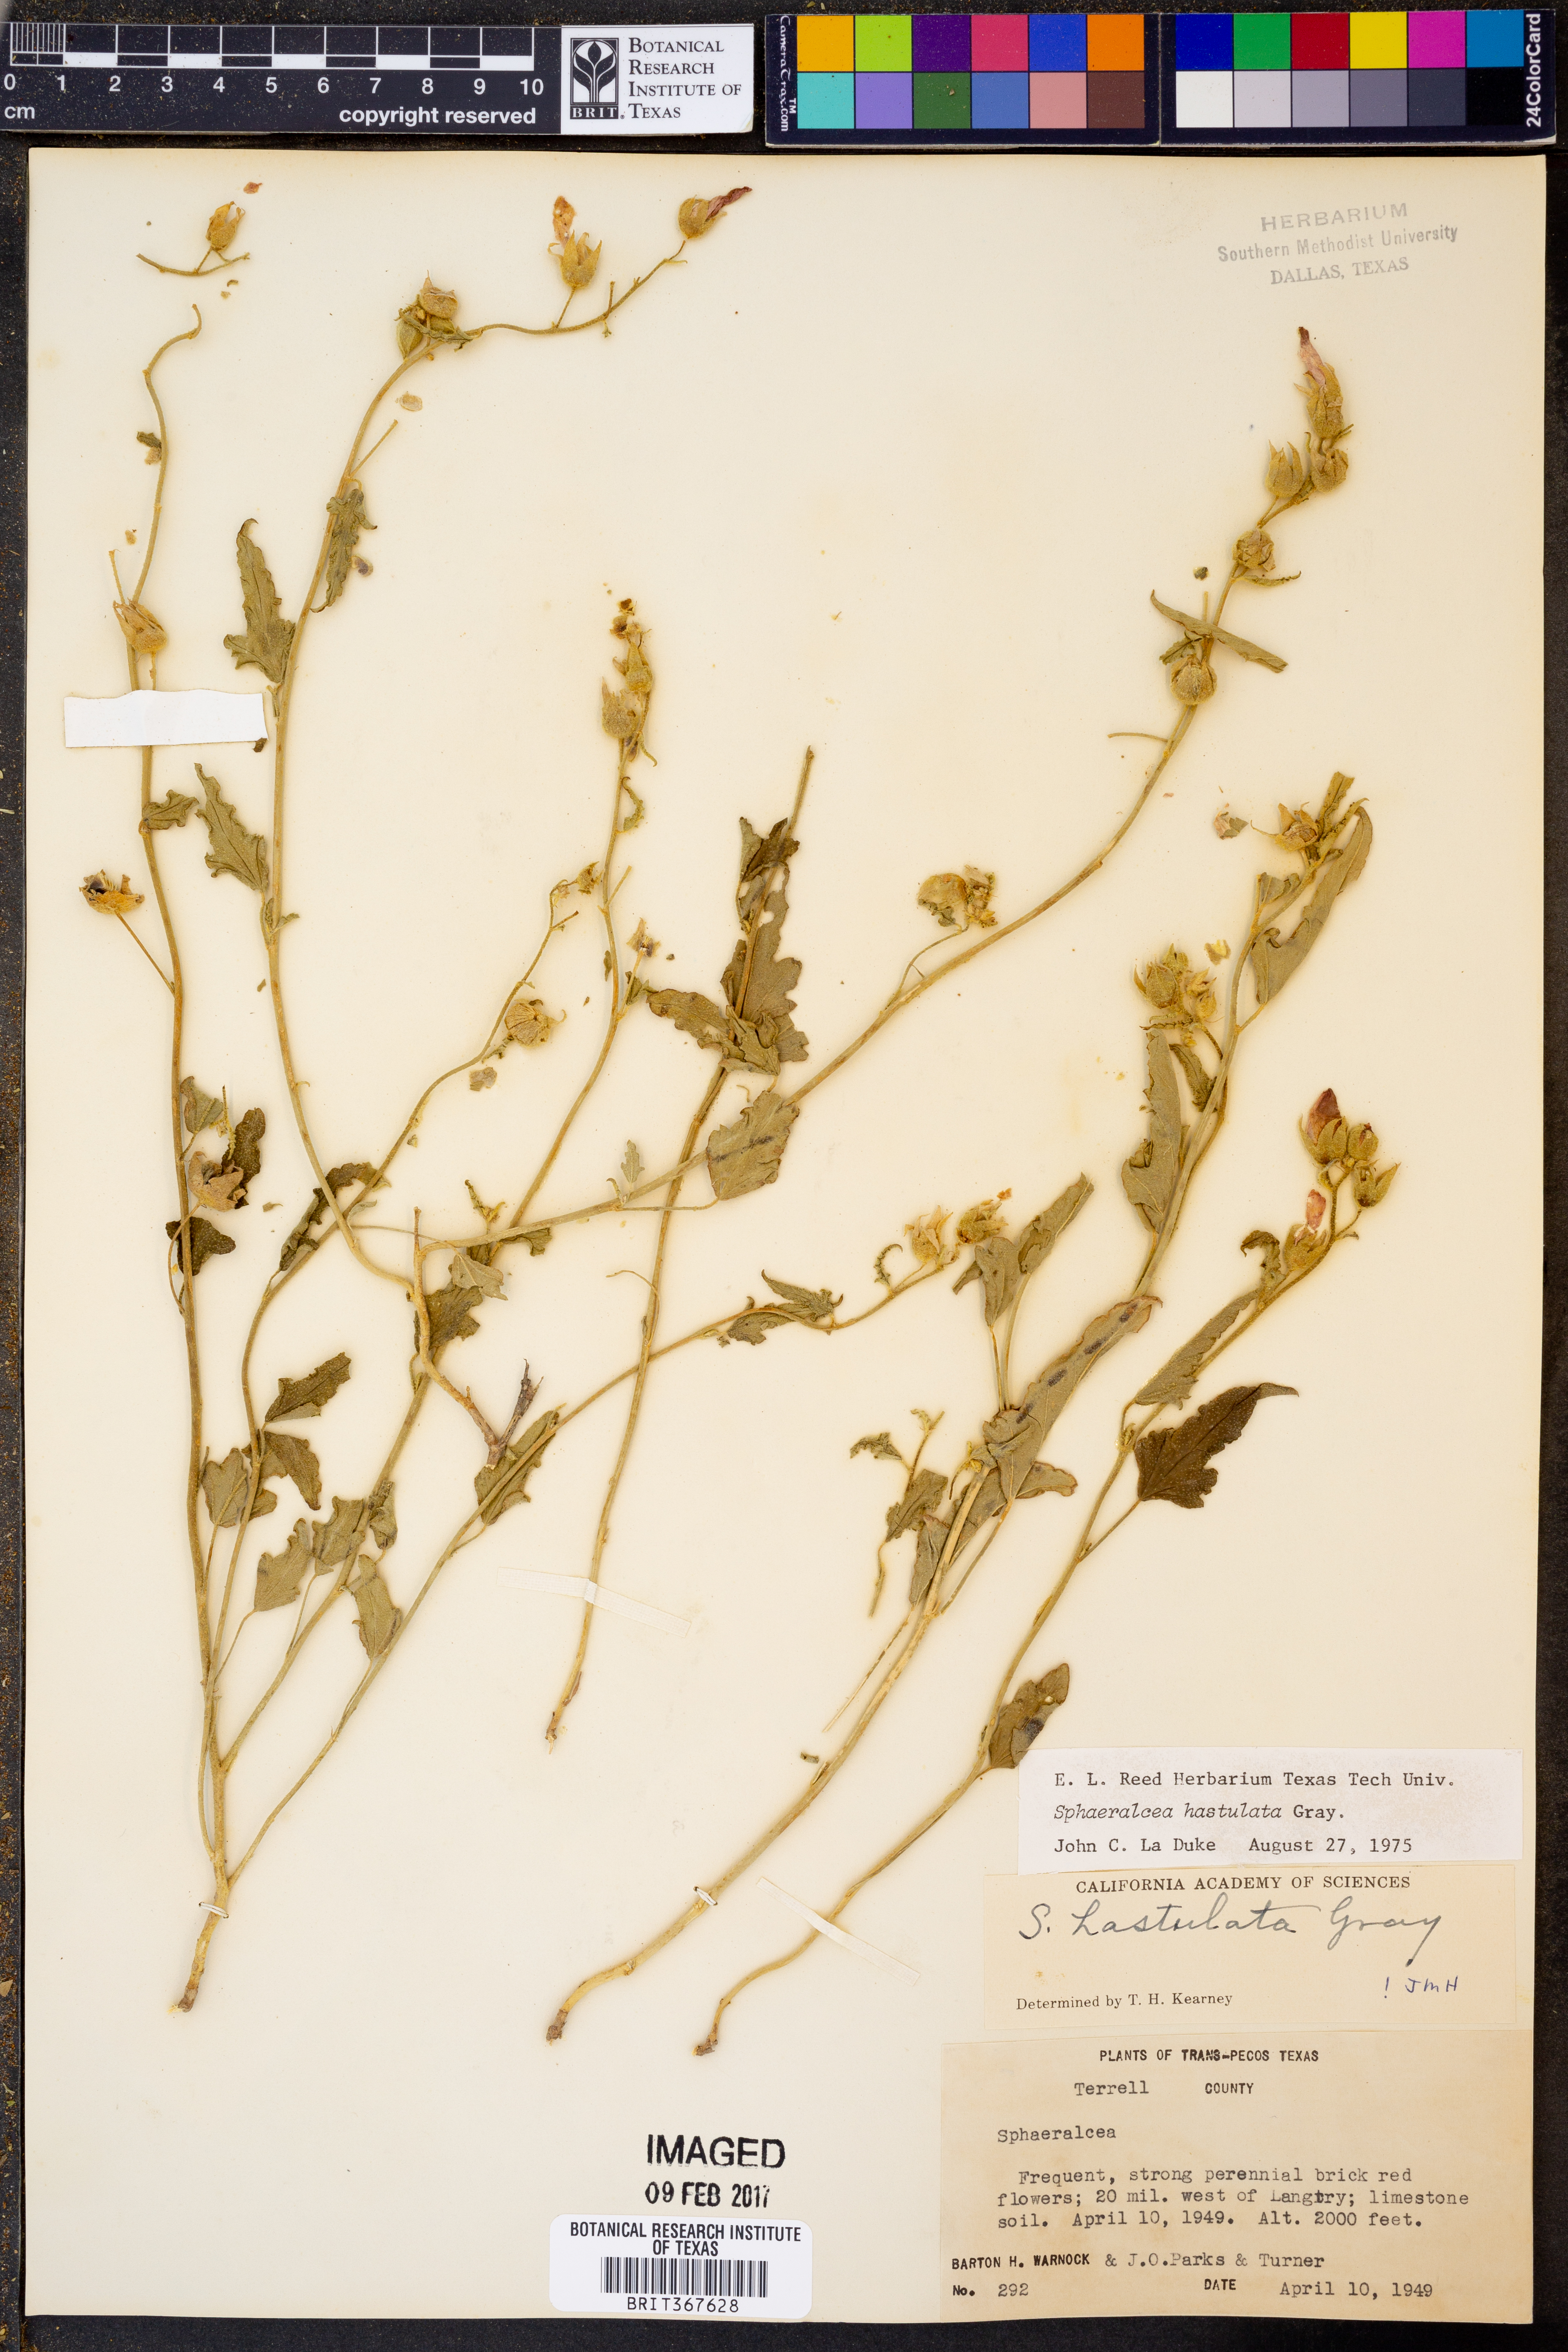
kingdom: Plantae
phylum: Tracheophyta
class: Magnoliopsida
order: Malvales
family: Malvaceae
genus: Sphaeralcea
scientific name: Sphaeralcea hastulata
